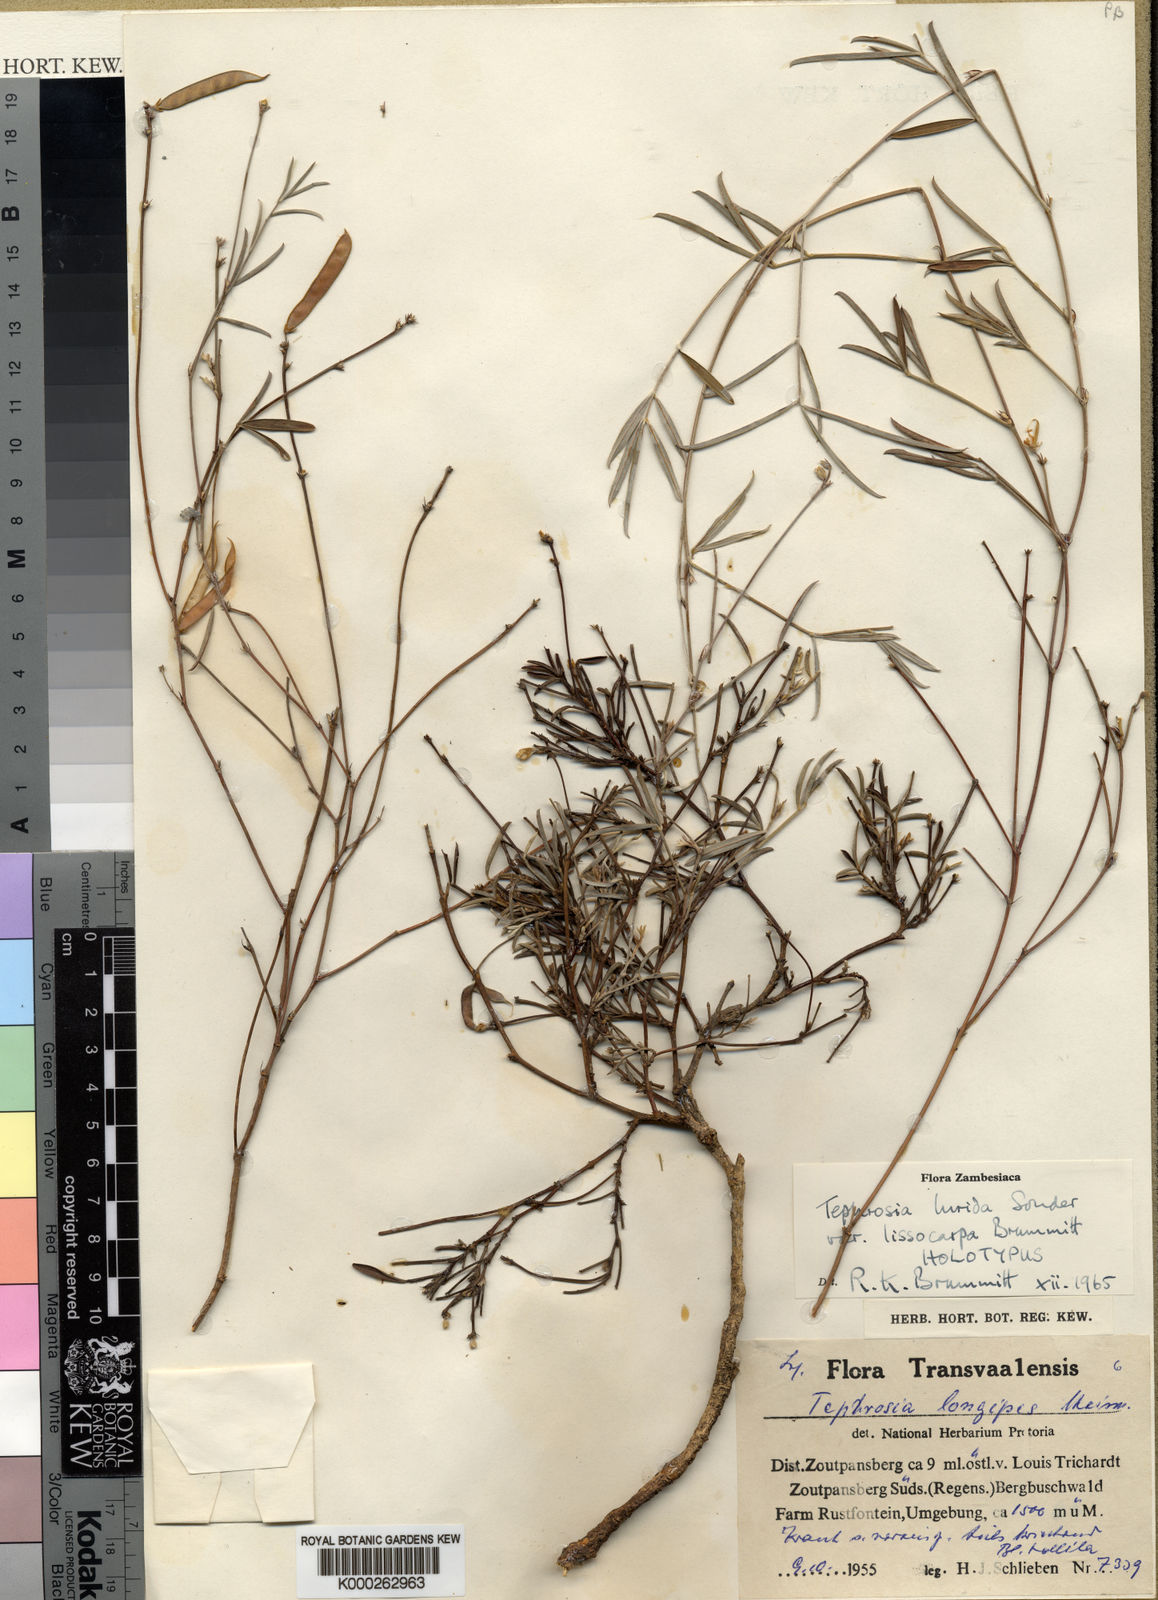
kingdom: Plantae
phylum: Tracheophyta
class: Magnoliopsida
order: Fabales
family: Fabaceae
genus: Tephrosia
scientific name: Tephrosia longipes
